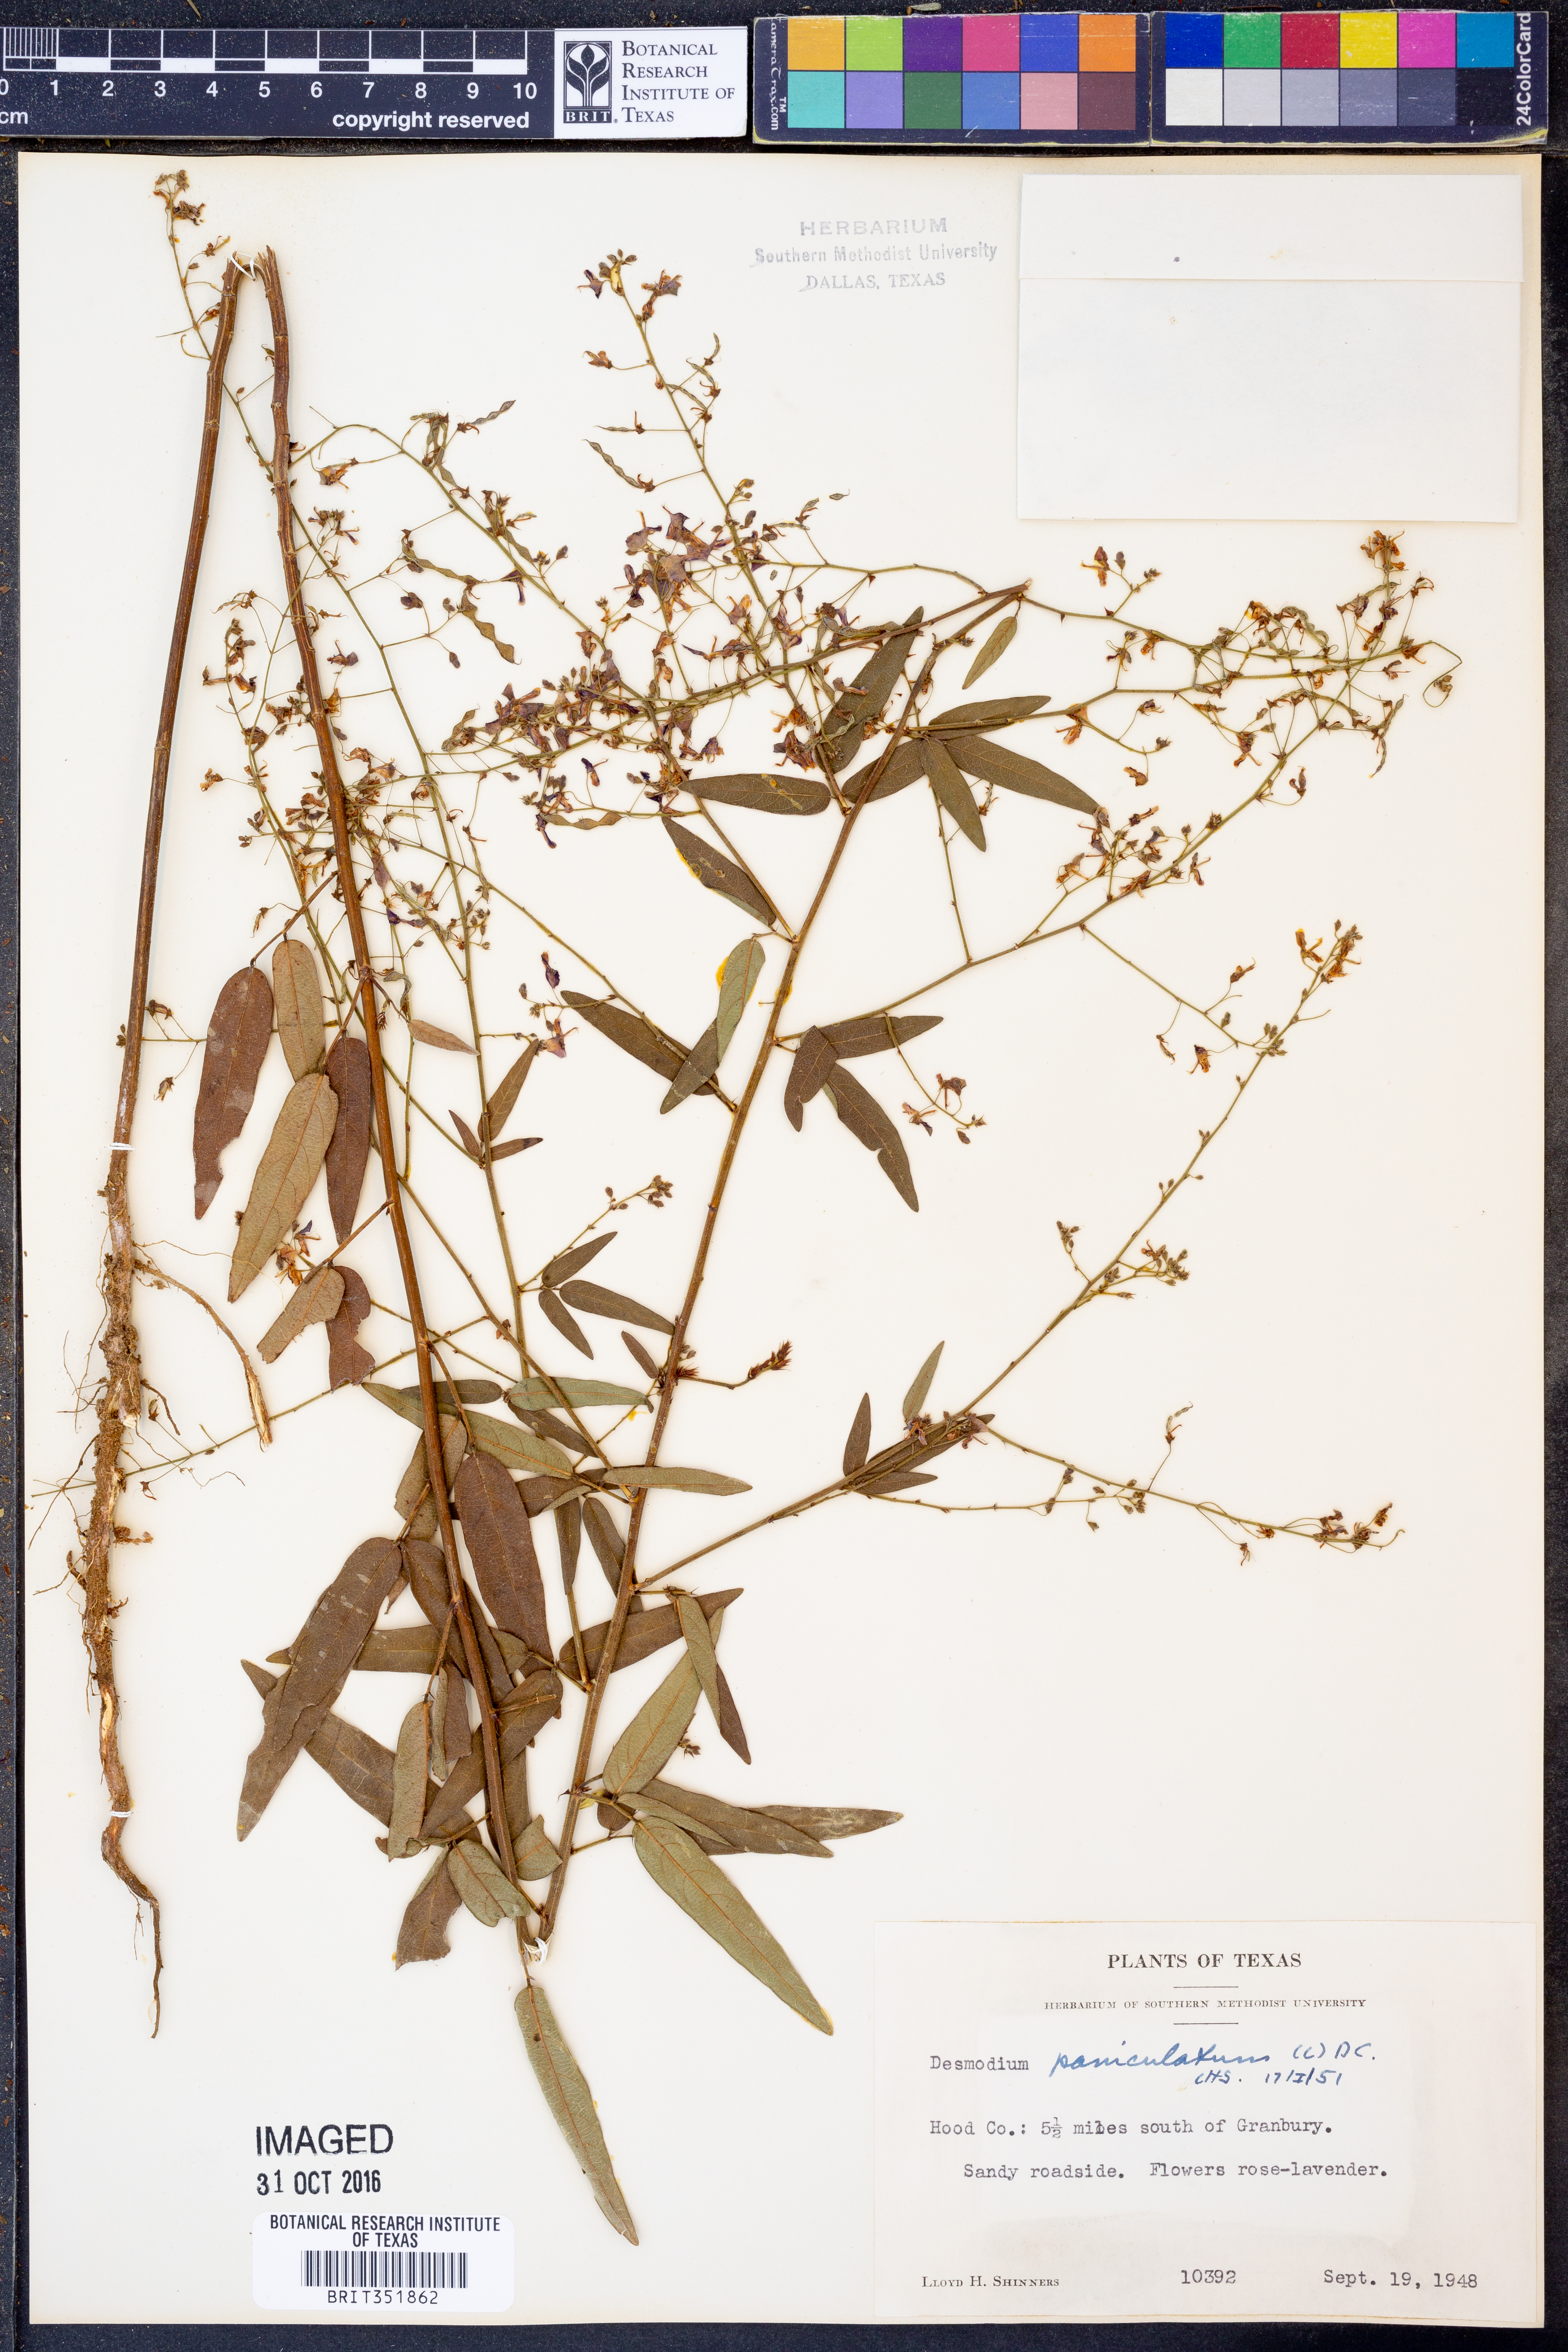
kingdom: Plantae
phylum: Tracheophyta
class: Magnoliopsida
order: Fabales
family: Fabaceae
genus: Desmodium
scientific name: Desmodium paniculatum
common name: Panicled tick-clover
